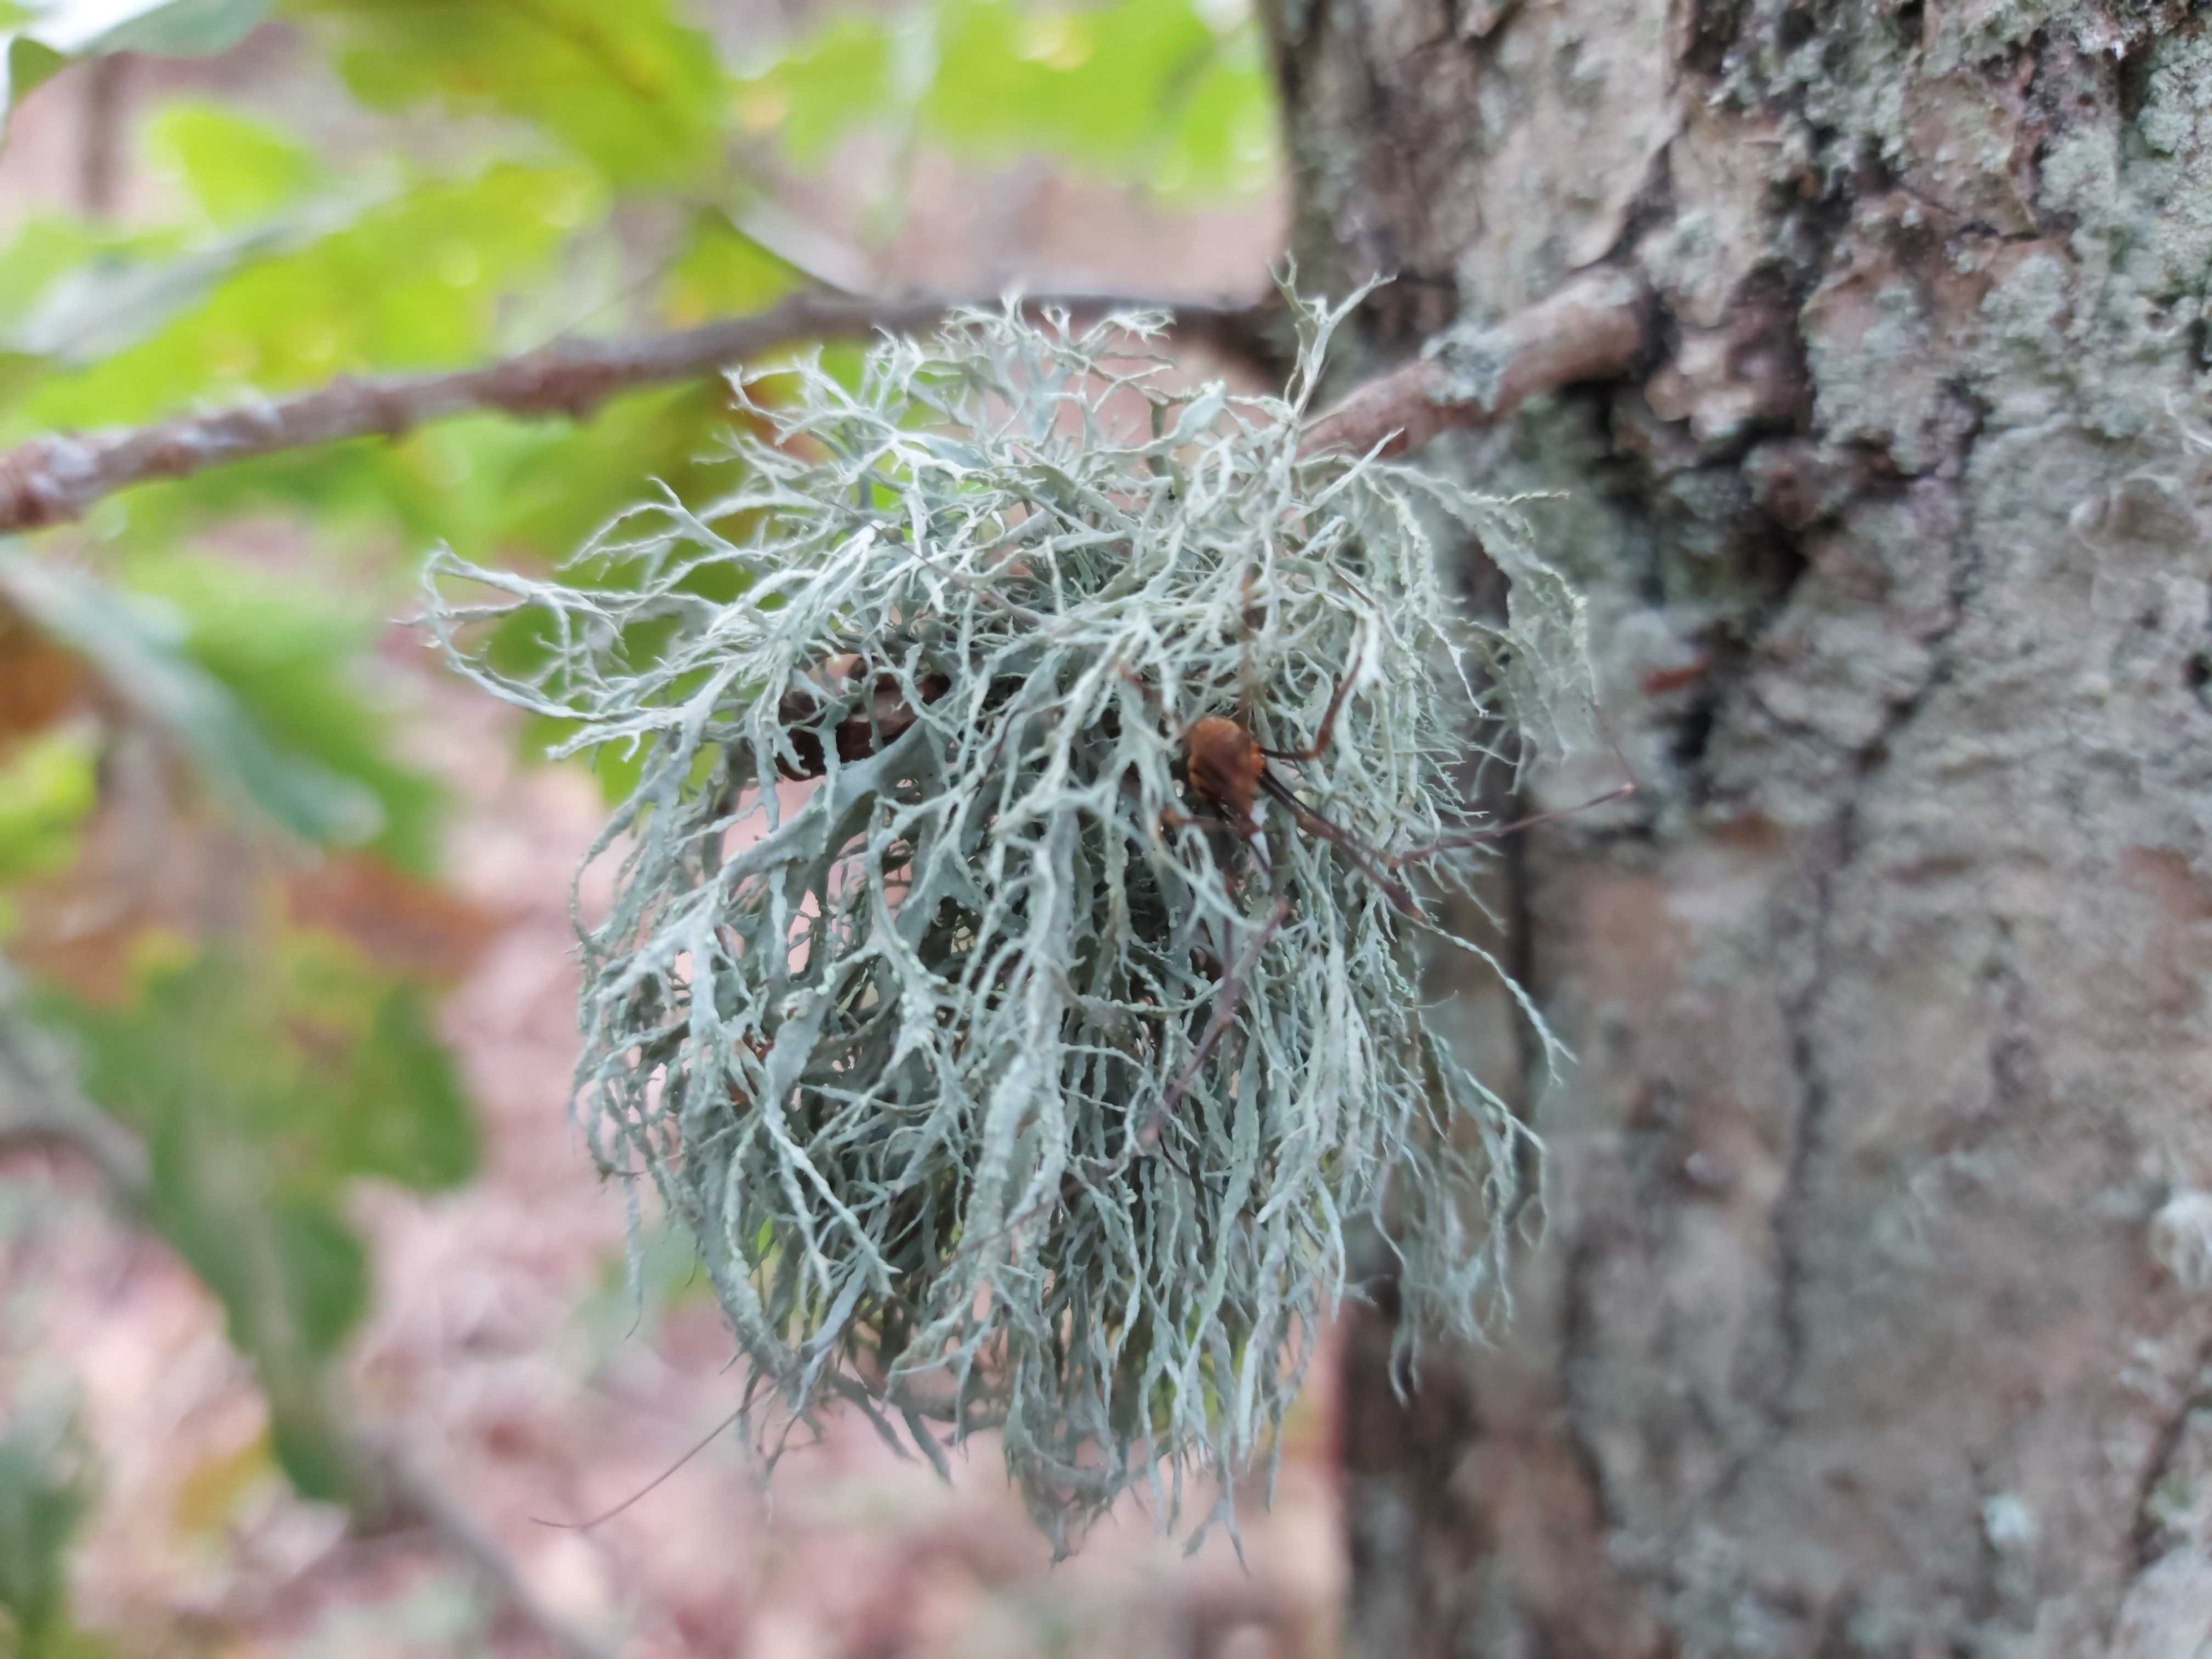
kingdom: Fungi
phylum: Ascomycota
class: Lecanoromycetes
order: Lecanorales
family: Ramalinaceae
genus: Ramalina
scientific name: Ramalina farinacea
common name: melet grenlav
